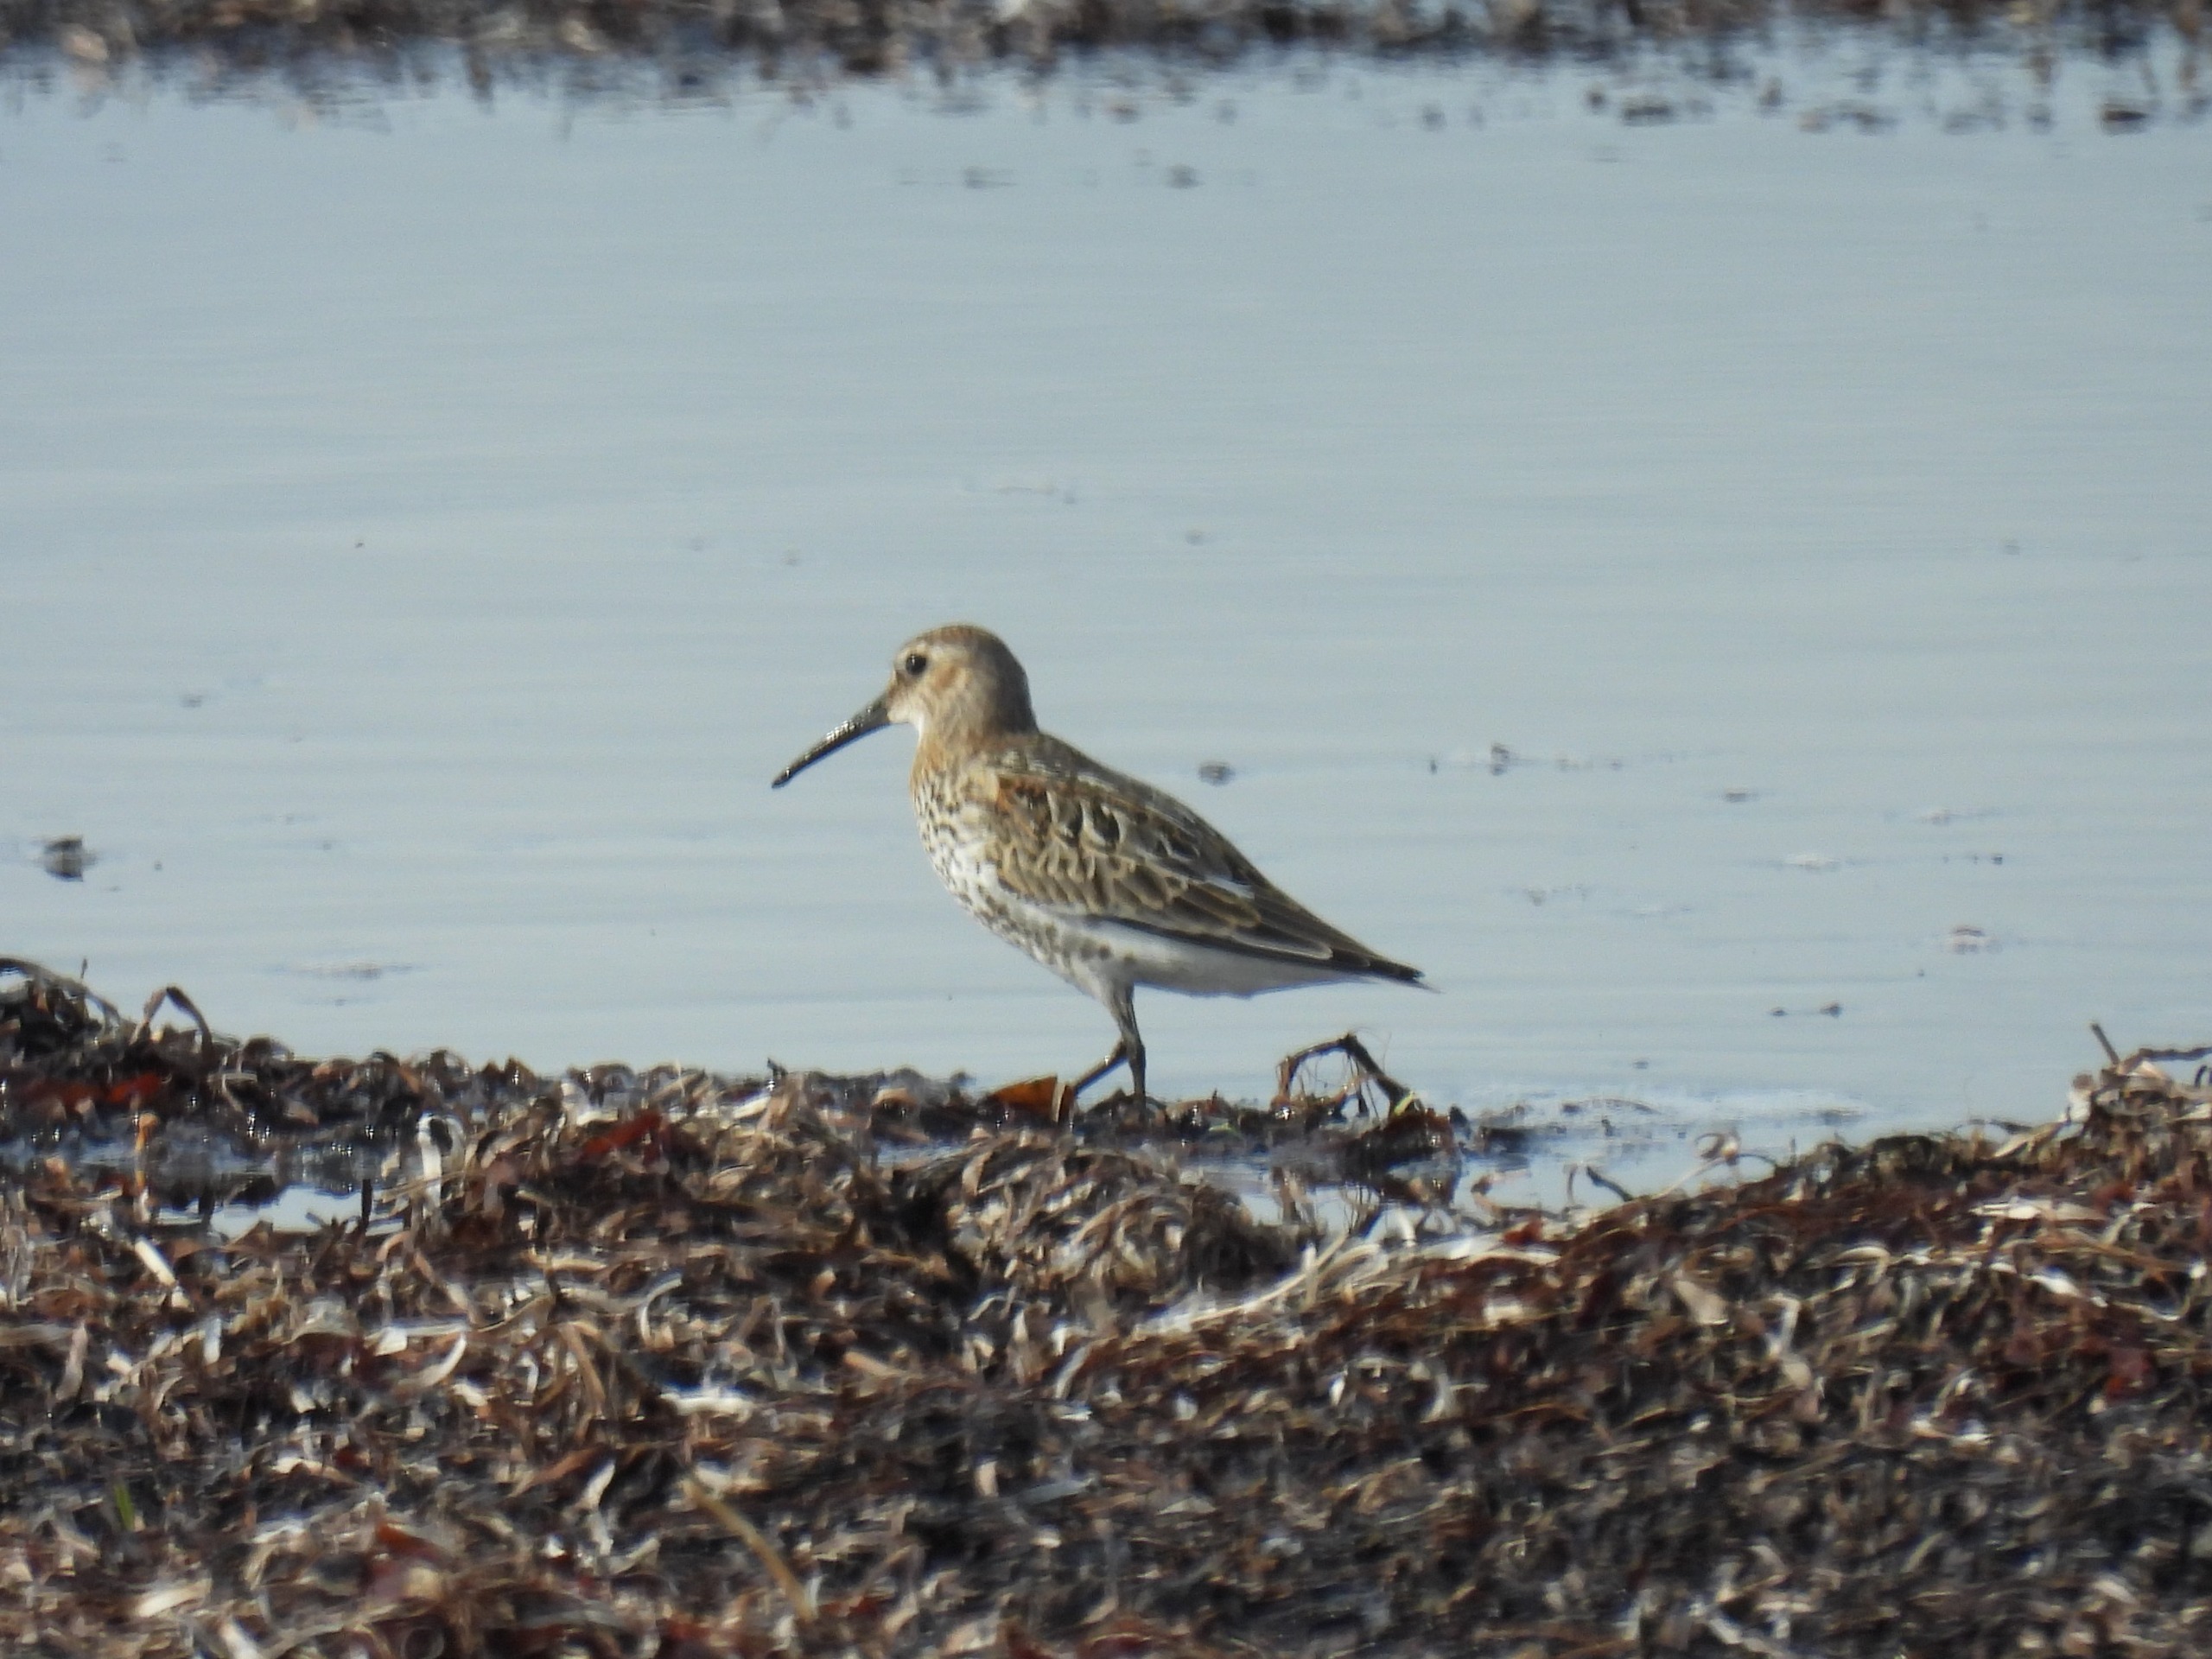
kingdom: Animalia
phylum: Chordata
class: Aves
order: Charadriiformes
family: Scolopacidae
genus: Calidris
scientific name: Calidris alpina
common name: Almindelig ryle
